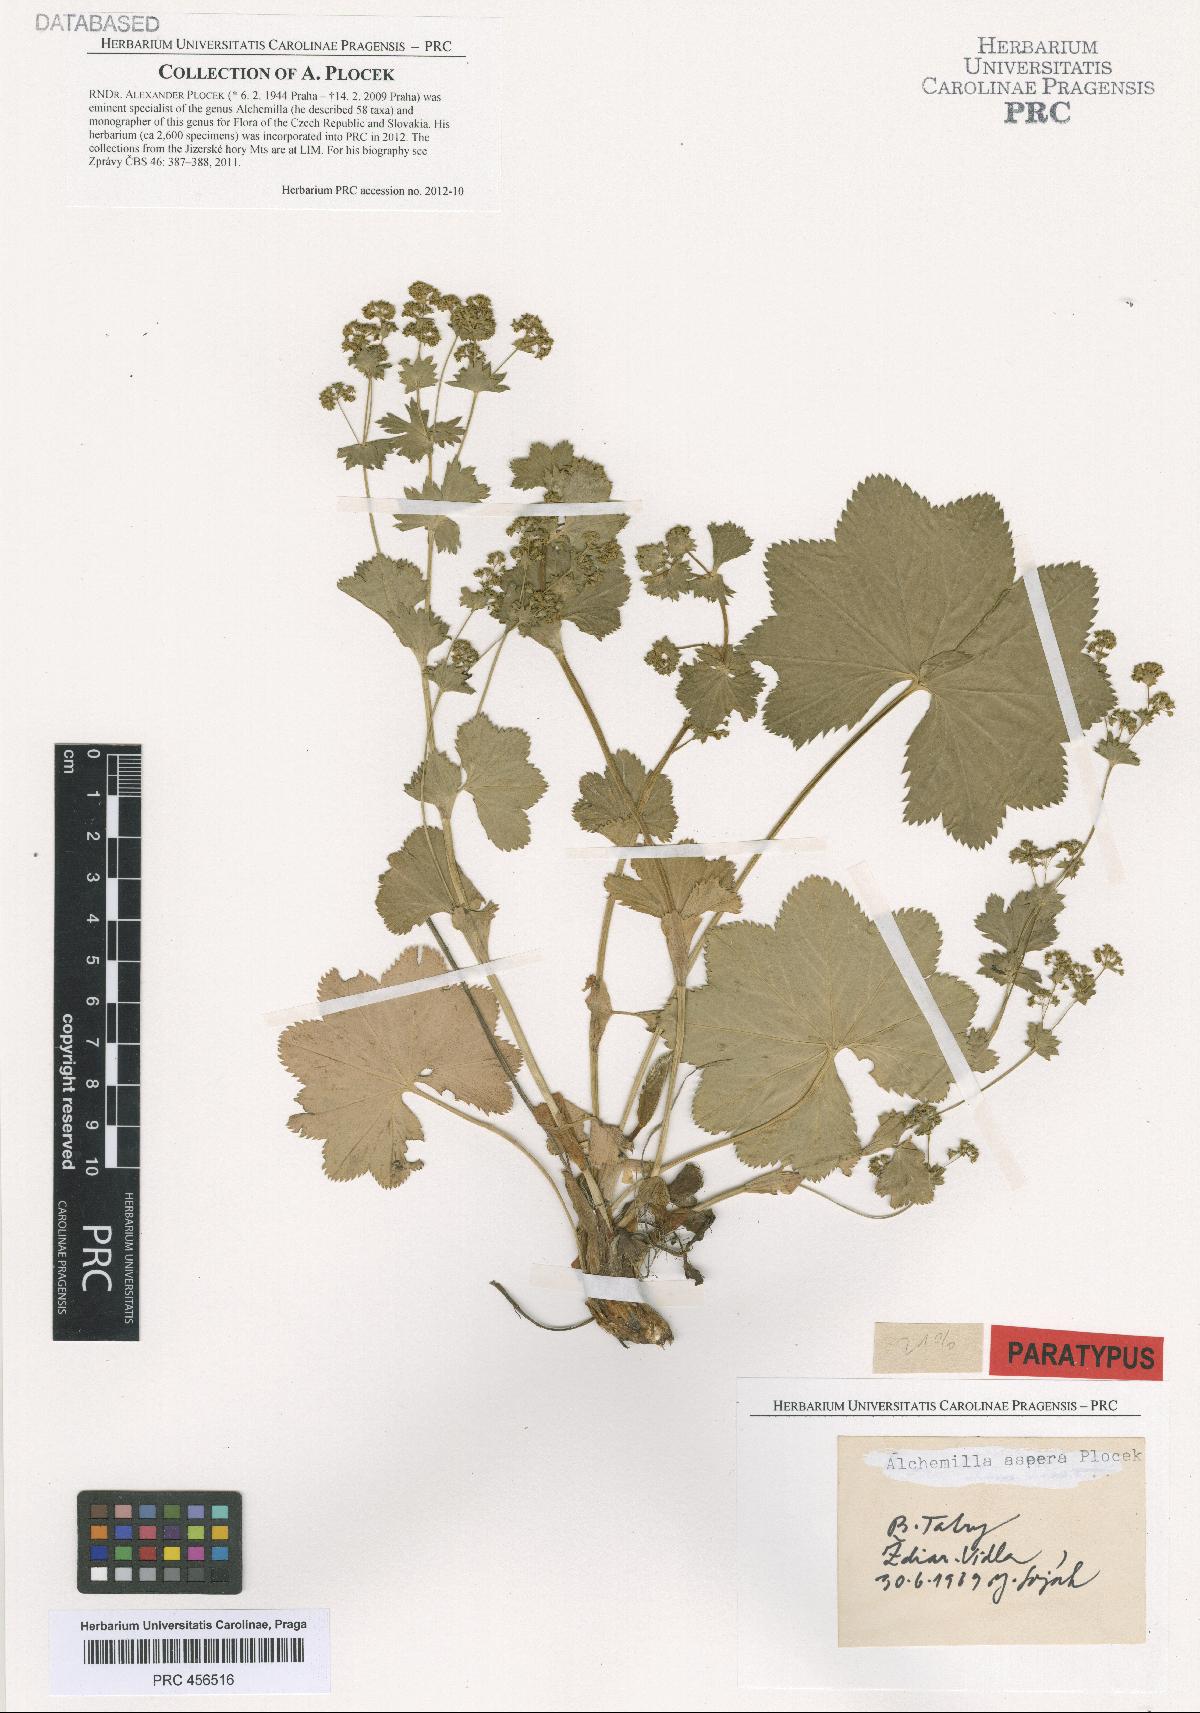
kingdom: Plantae
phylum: Tracheophyta
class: Magnoliopsida
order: Rosales
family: Rosaceae
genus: Alchemilla
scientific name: Alchemilla aspera
